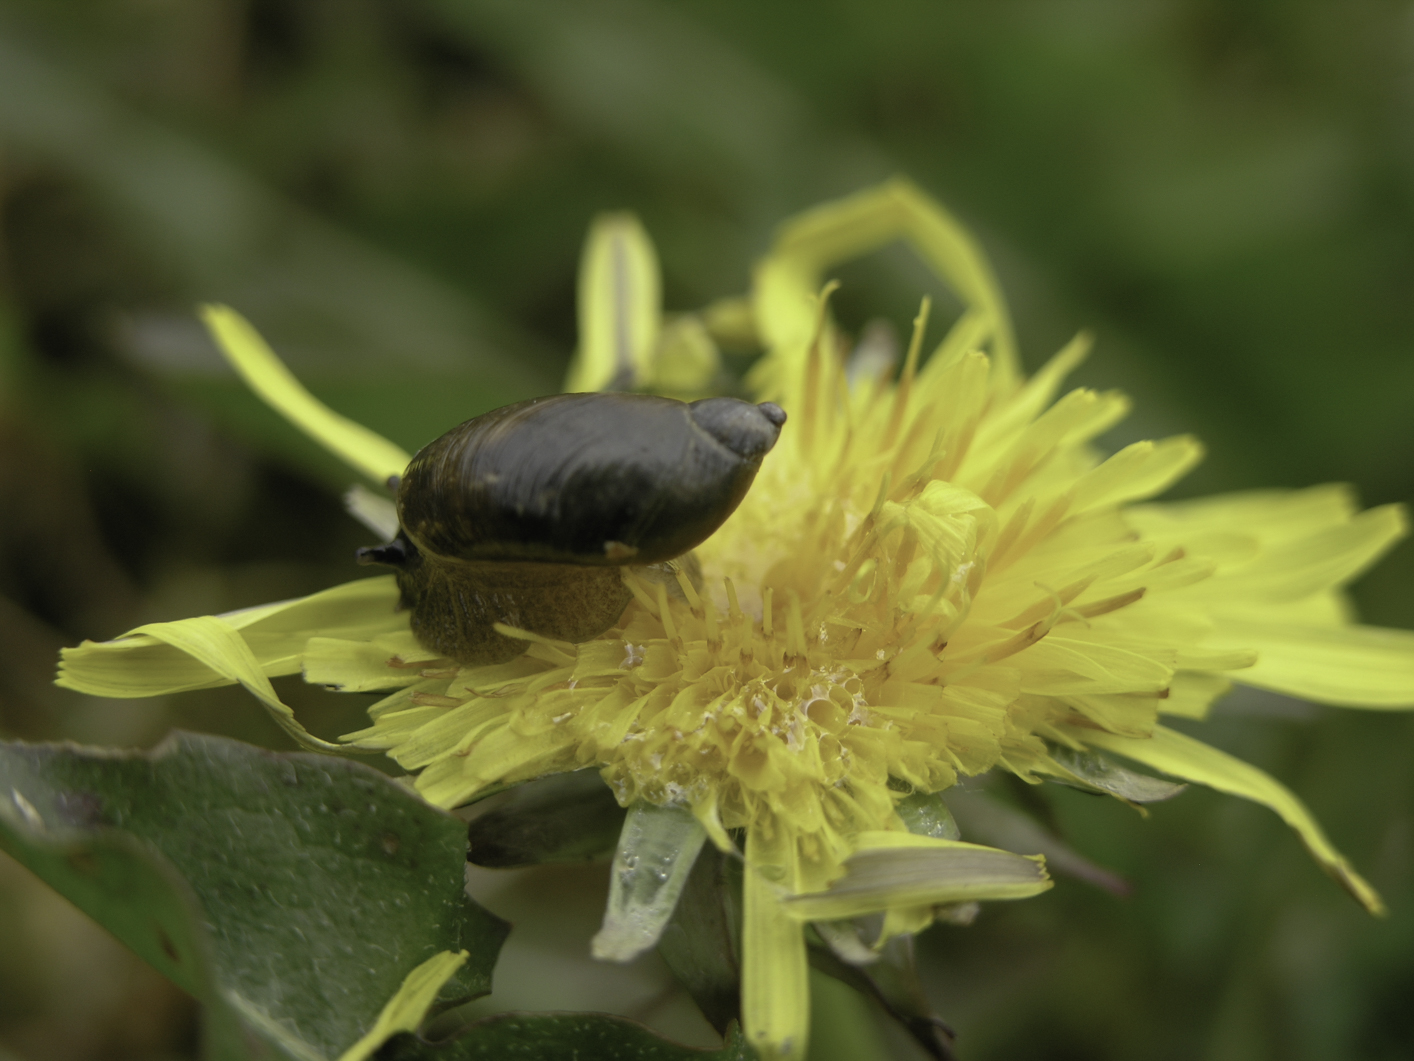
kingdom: Animalia
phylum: Mollusca
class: Gastropoda
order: Stylommatophora
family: Succineidae
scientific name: Succineidae
